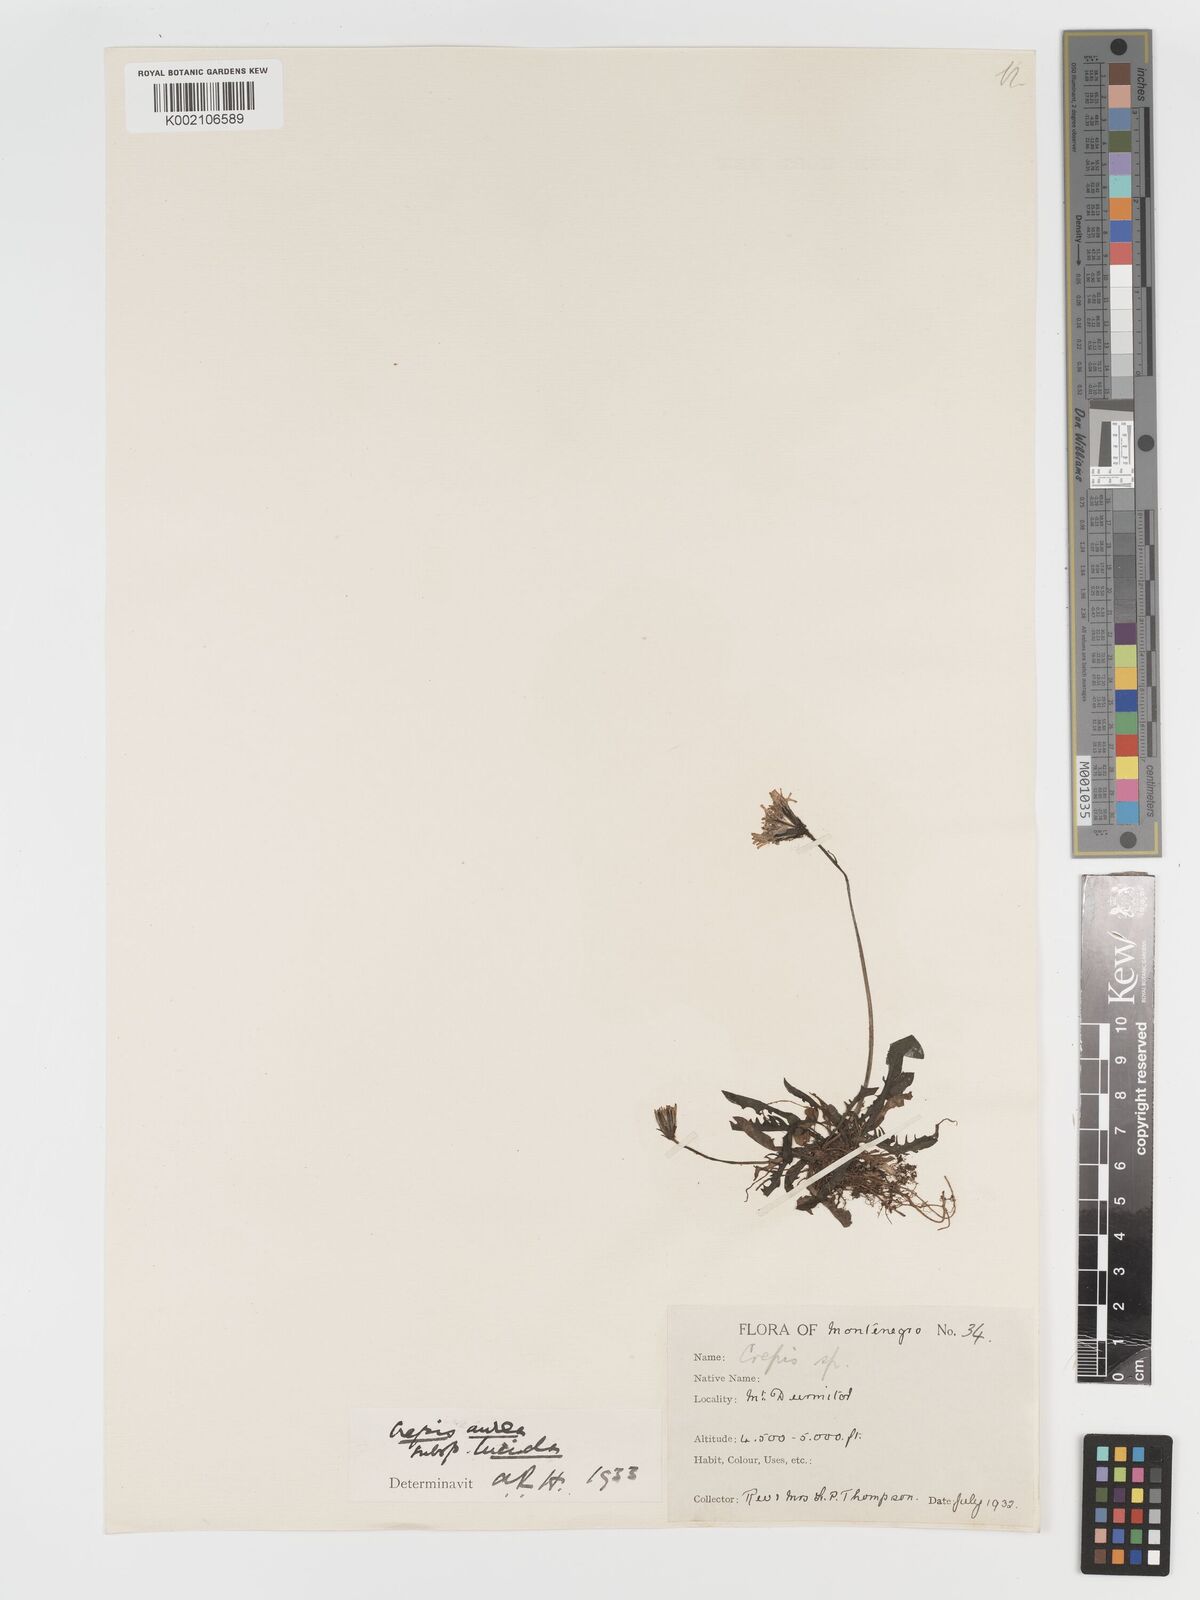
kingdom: Plantae
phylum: Tracheophyta
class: Magnoliopsida
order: Asterales
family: Asteraceae
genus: Crepis
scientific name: Crepis aurea
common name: Golden hawk's-beard
